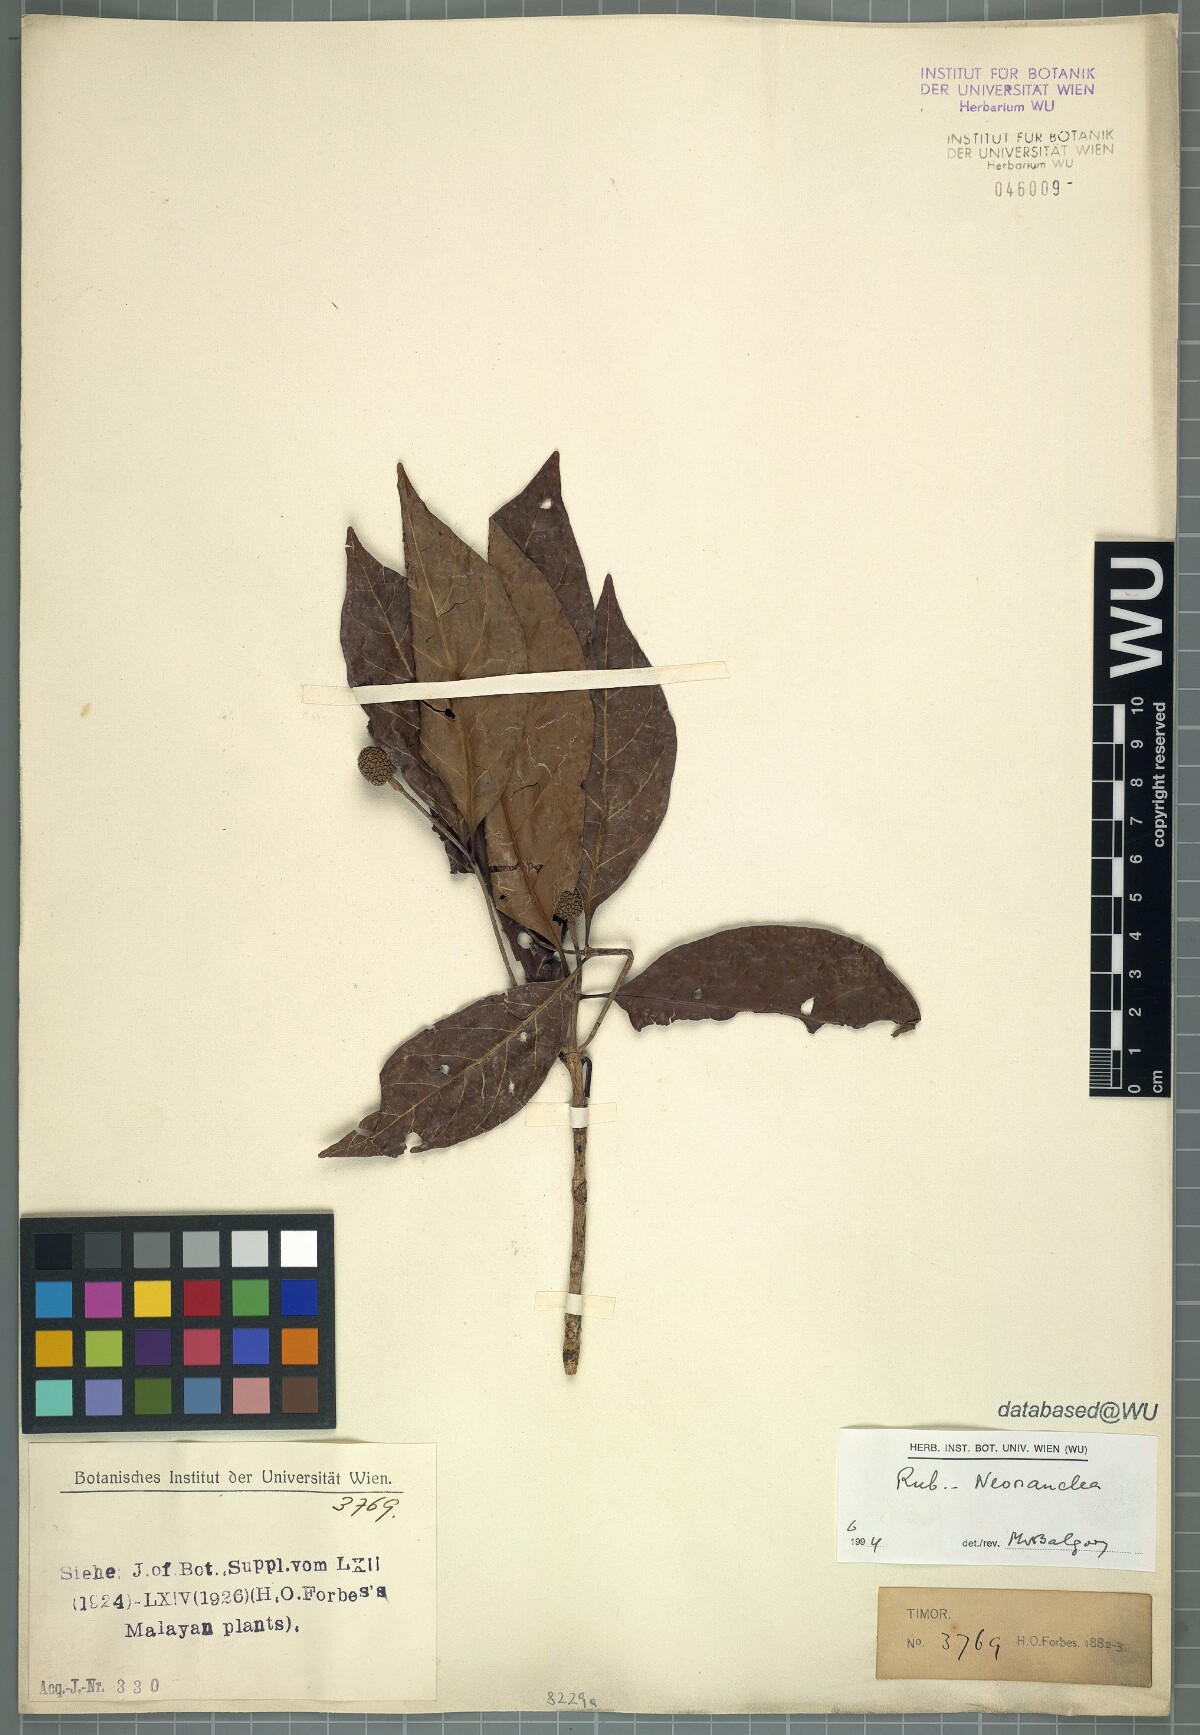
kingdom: Plantae
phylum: Tracheophyta
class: Magnoliopsida
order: Gentianales
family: Rubiaceae
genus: Neonauclea
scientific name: Neonauclea
